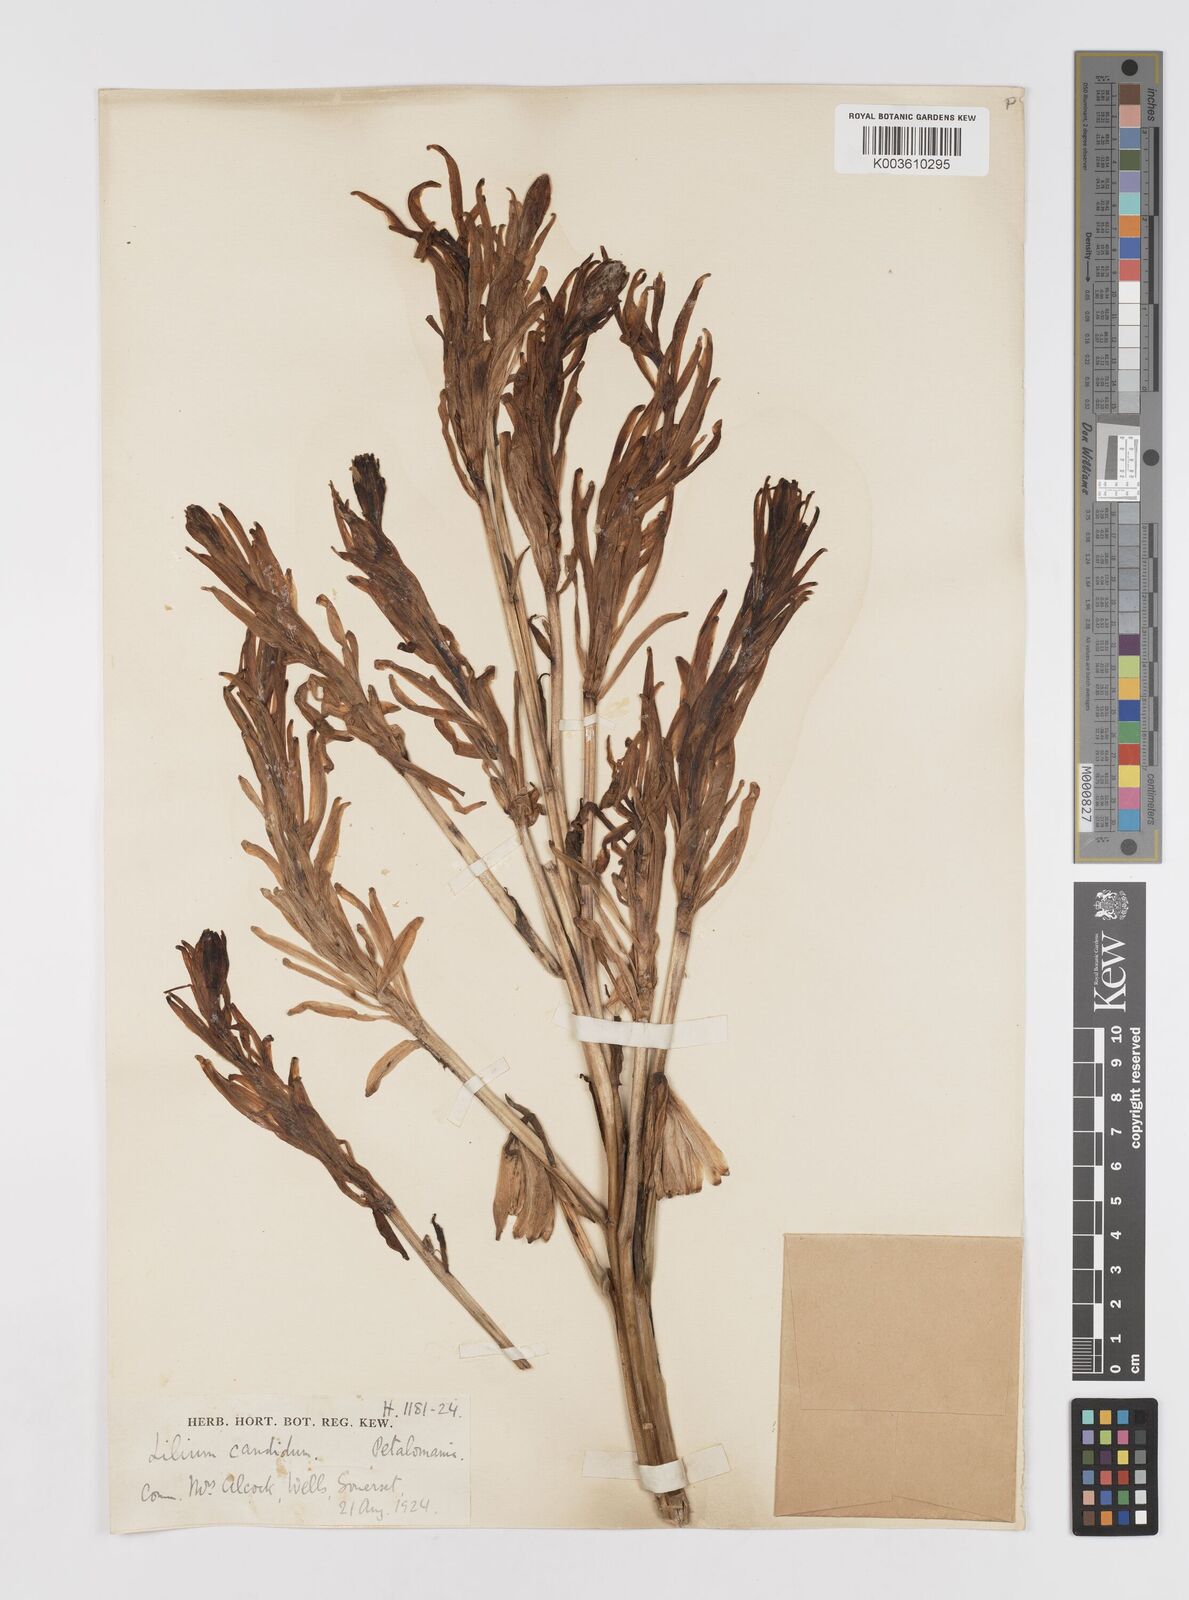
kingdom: Plantae
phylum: Tracheophyta
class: Liliopsida
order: Liliales
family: Liliaceae
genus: Lilium
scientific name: Lilium
